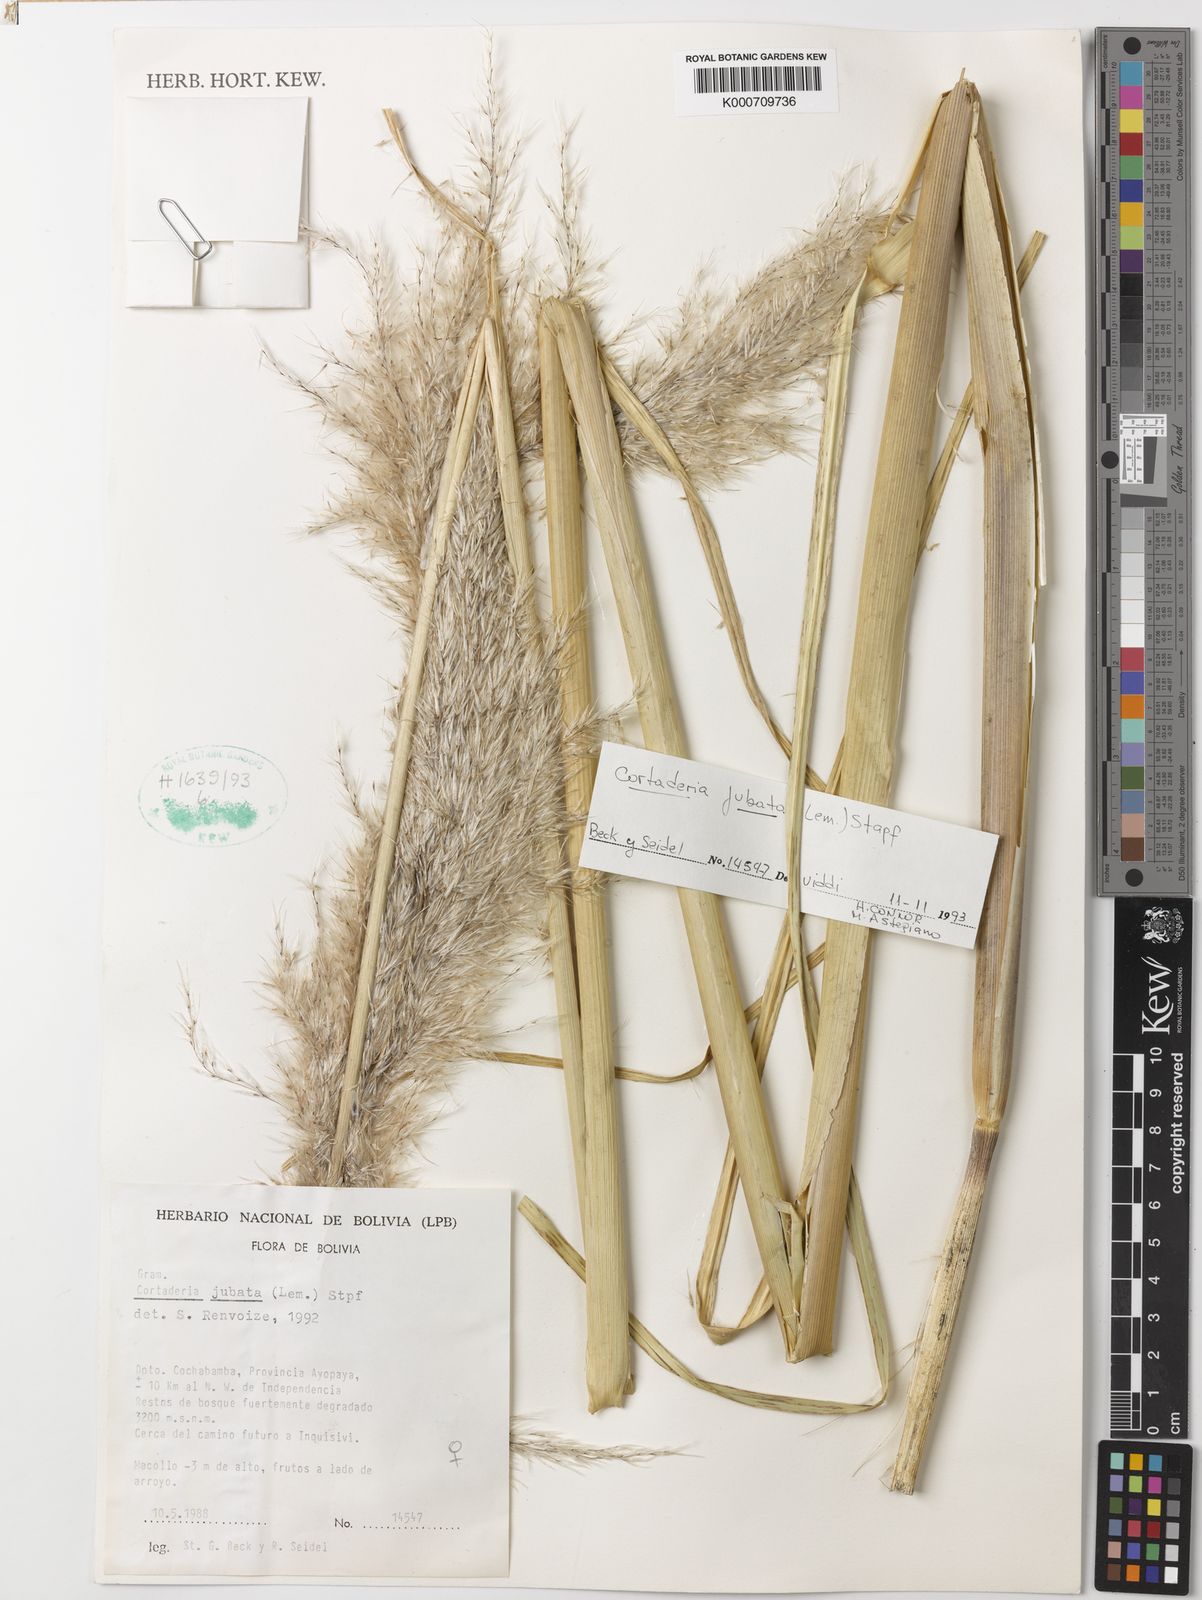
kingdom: Plantae
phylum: Tracheophyta
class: Liliopsida
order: Poales
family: Poaceae
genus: Cortaderia
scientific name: Cortaderia jubata
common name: Purple pampas grass
